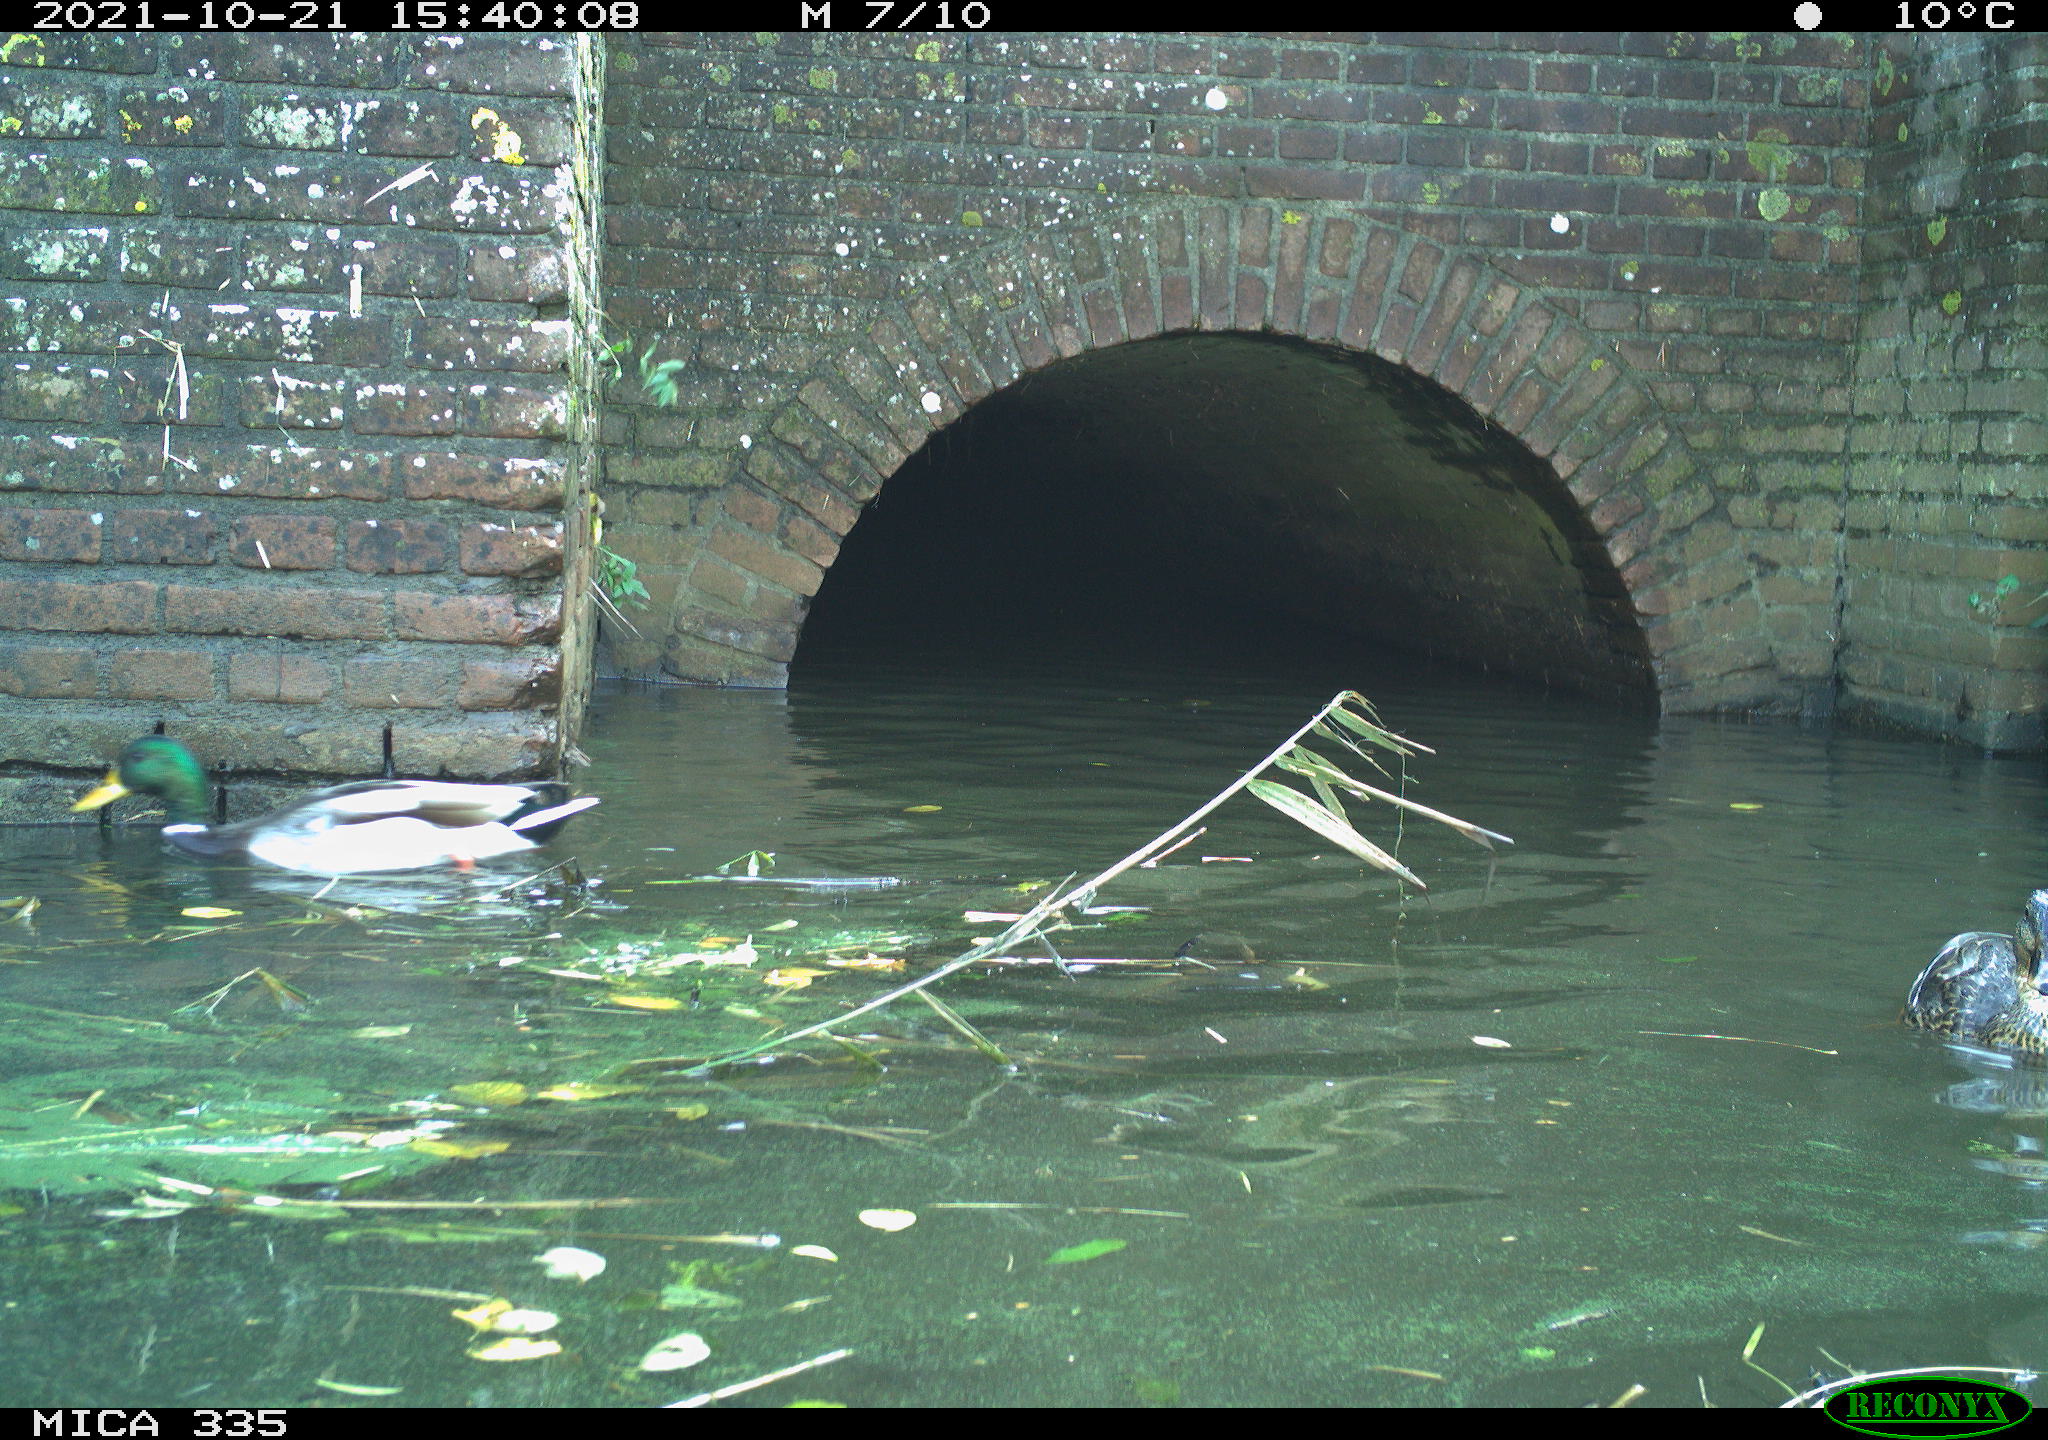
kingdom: Animalia
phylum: Chordata
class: Aves
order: Anseriformes
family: Anatidae
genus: Anas
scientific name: Anas platyrhynchos
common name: Mallard
